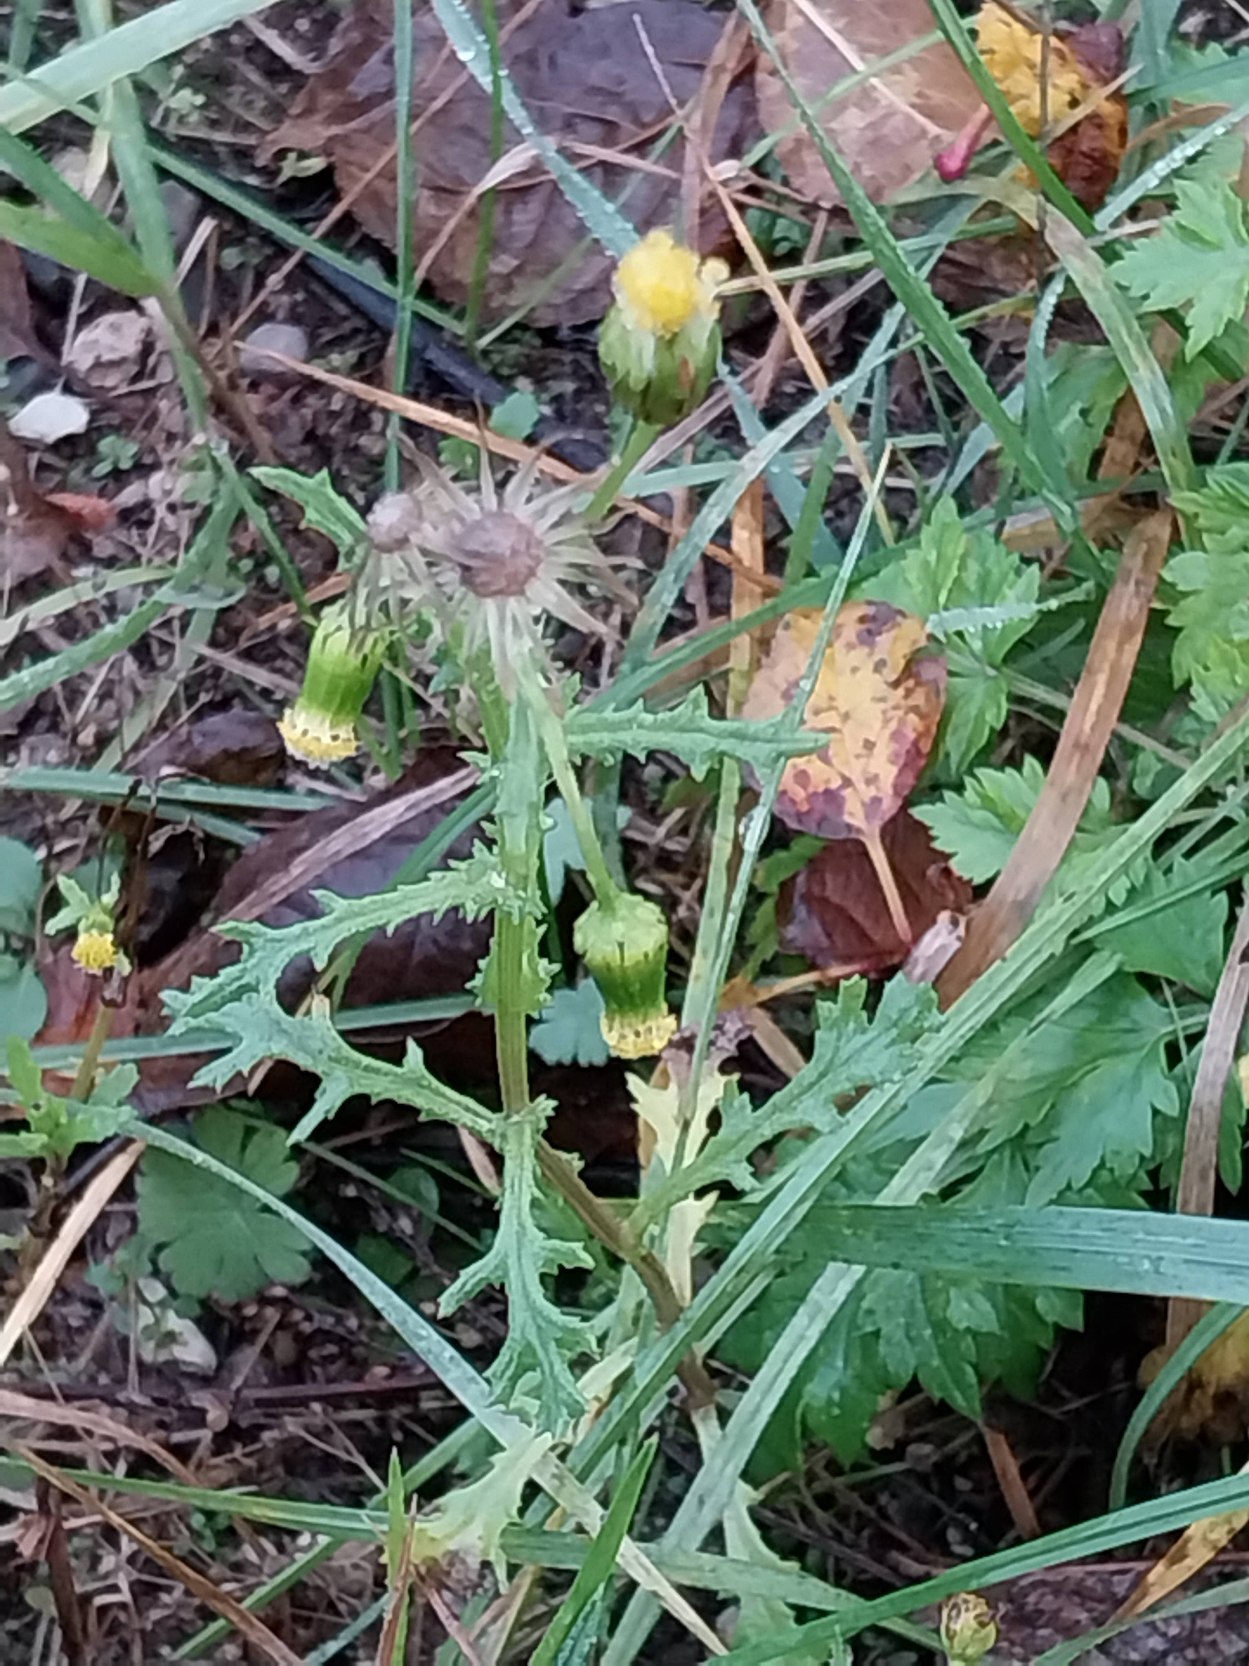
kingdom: Plantae
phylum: Tracheophyta
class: Magnoliopsida
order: Asterales
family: Asteraceae
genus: Senecio
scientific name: Senecio vulgaris
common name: Almindelig brandbæger
